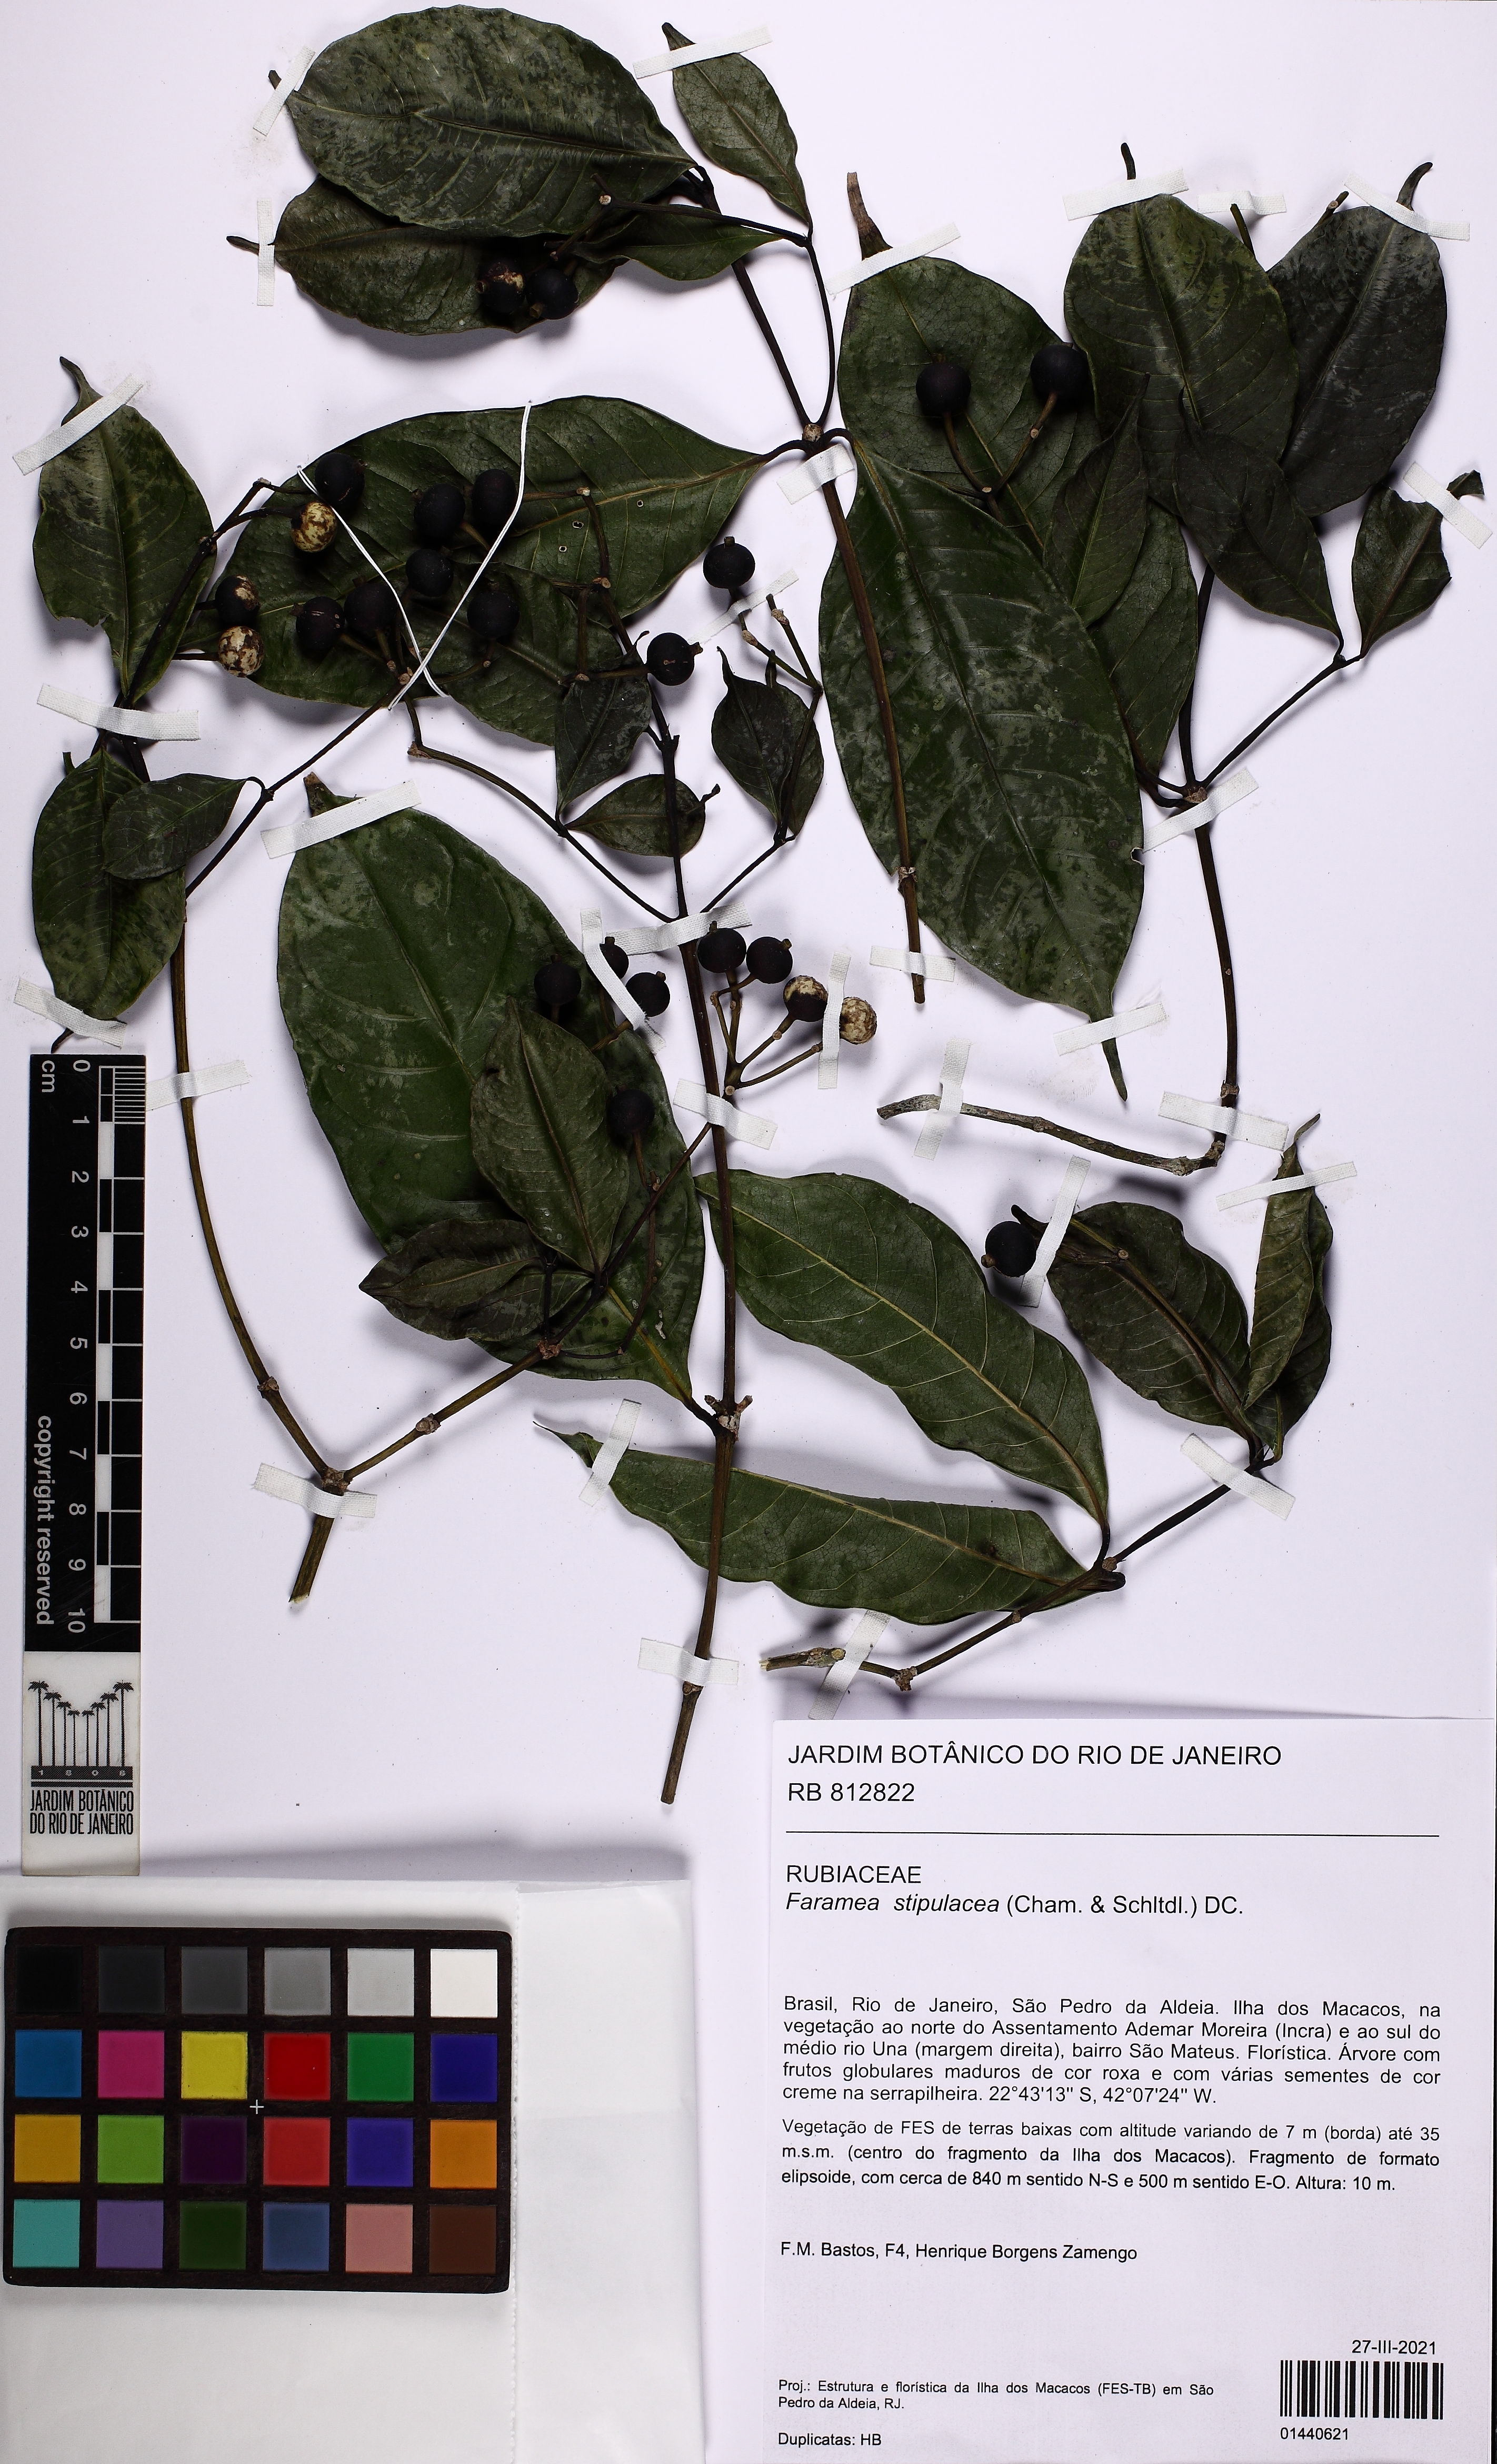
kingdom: Plantae
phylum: Tracheophyta
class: Magnoliopsida
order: Gentianales
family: Rubiaceae
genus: Faramea
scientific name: Faramea stipulacea
